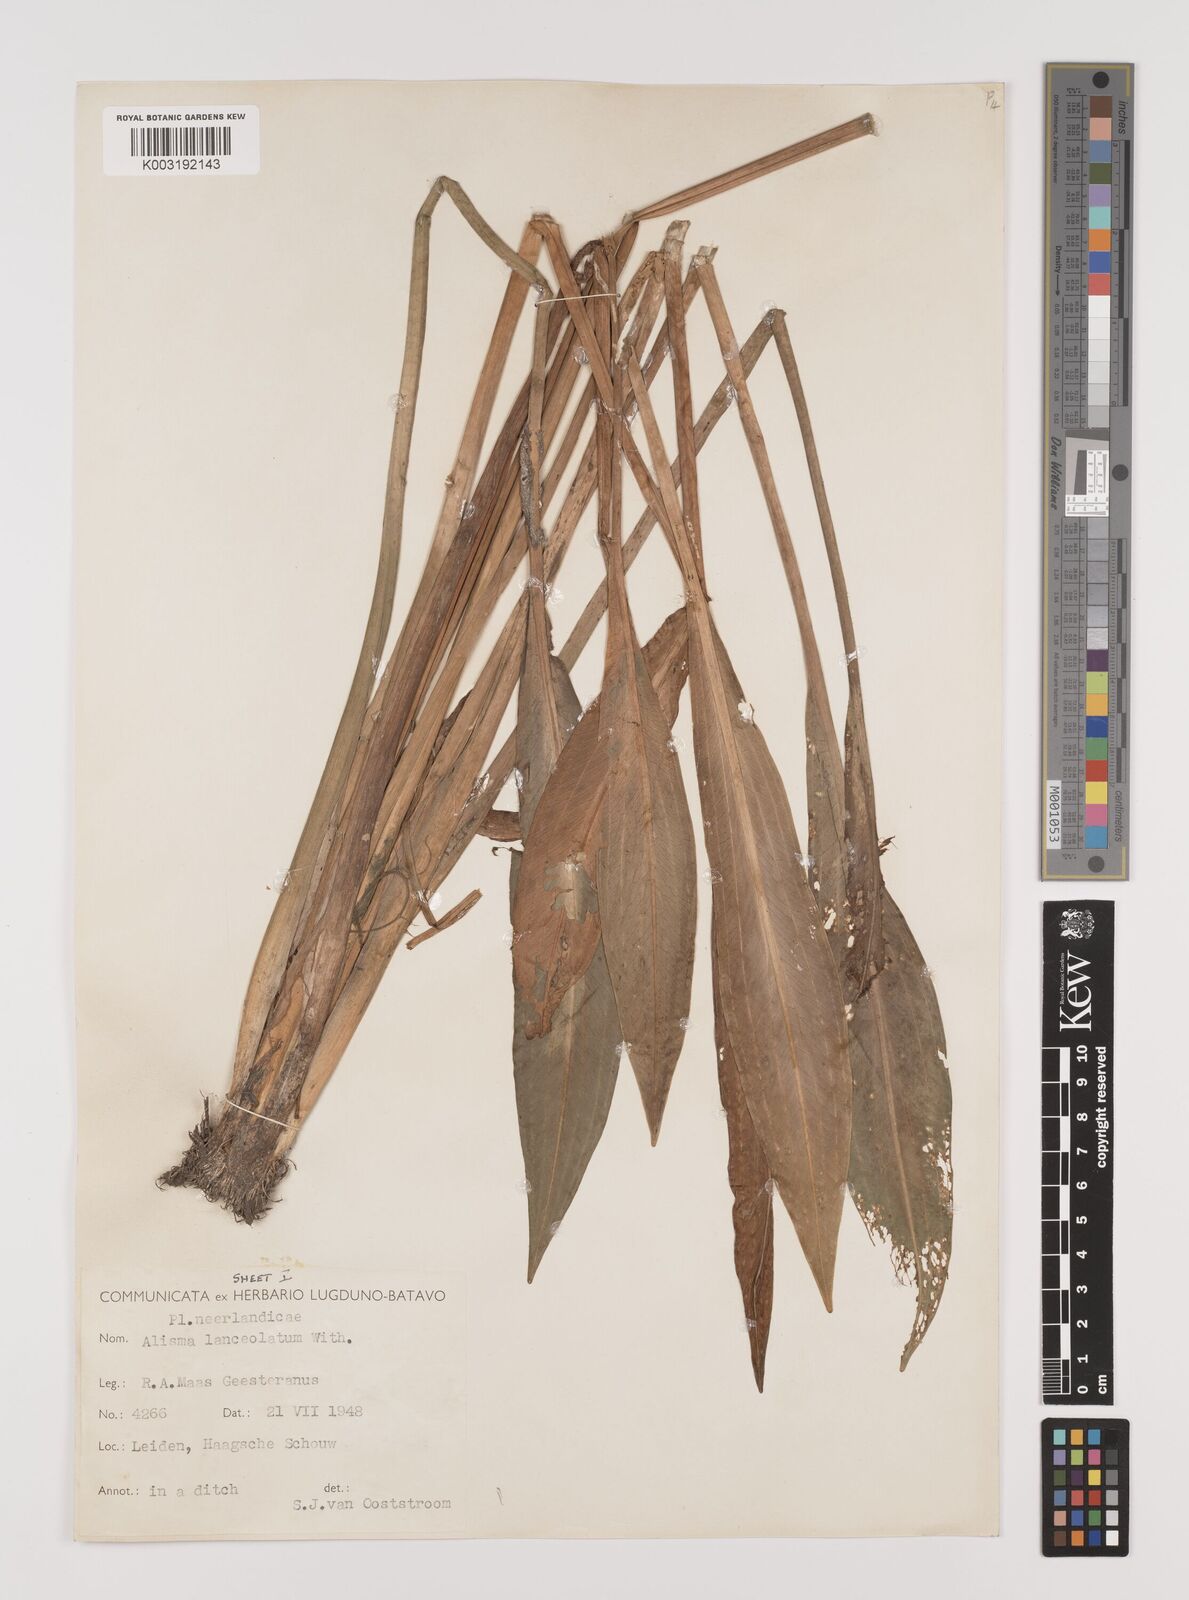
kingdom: Plantae
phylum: Tracheophyta
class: Liliopsida
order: Alismatales
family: Alismataceae
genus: Alisma
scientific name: Alisma plantago-aquatica
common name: Water-plantain
